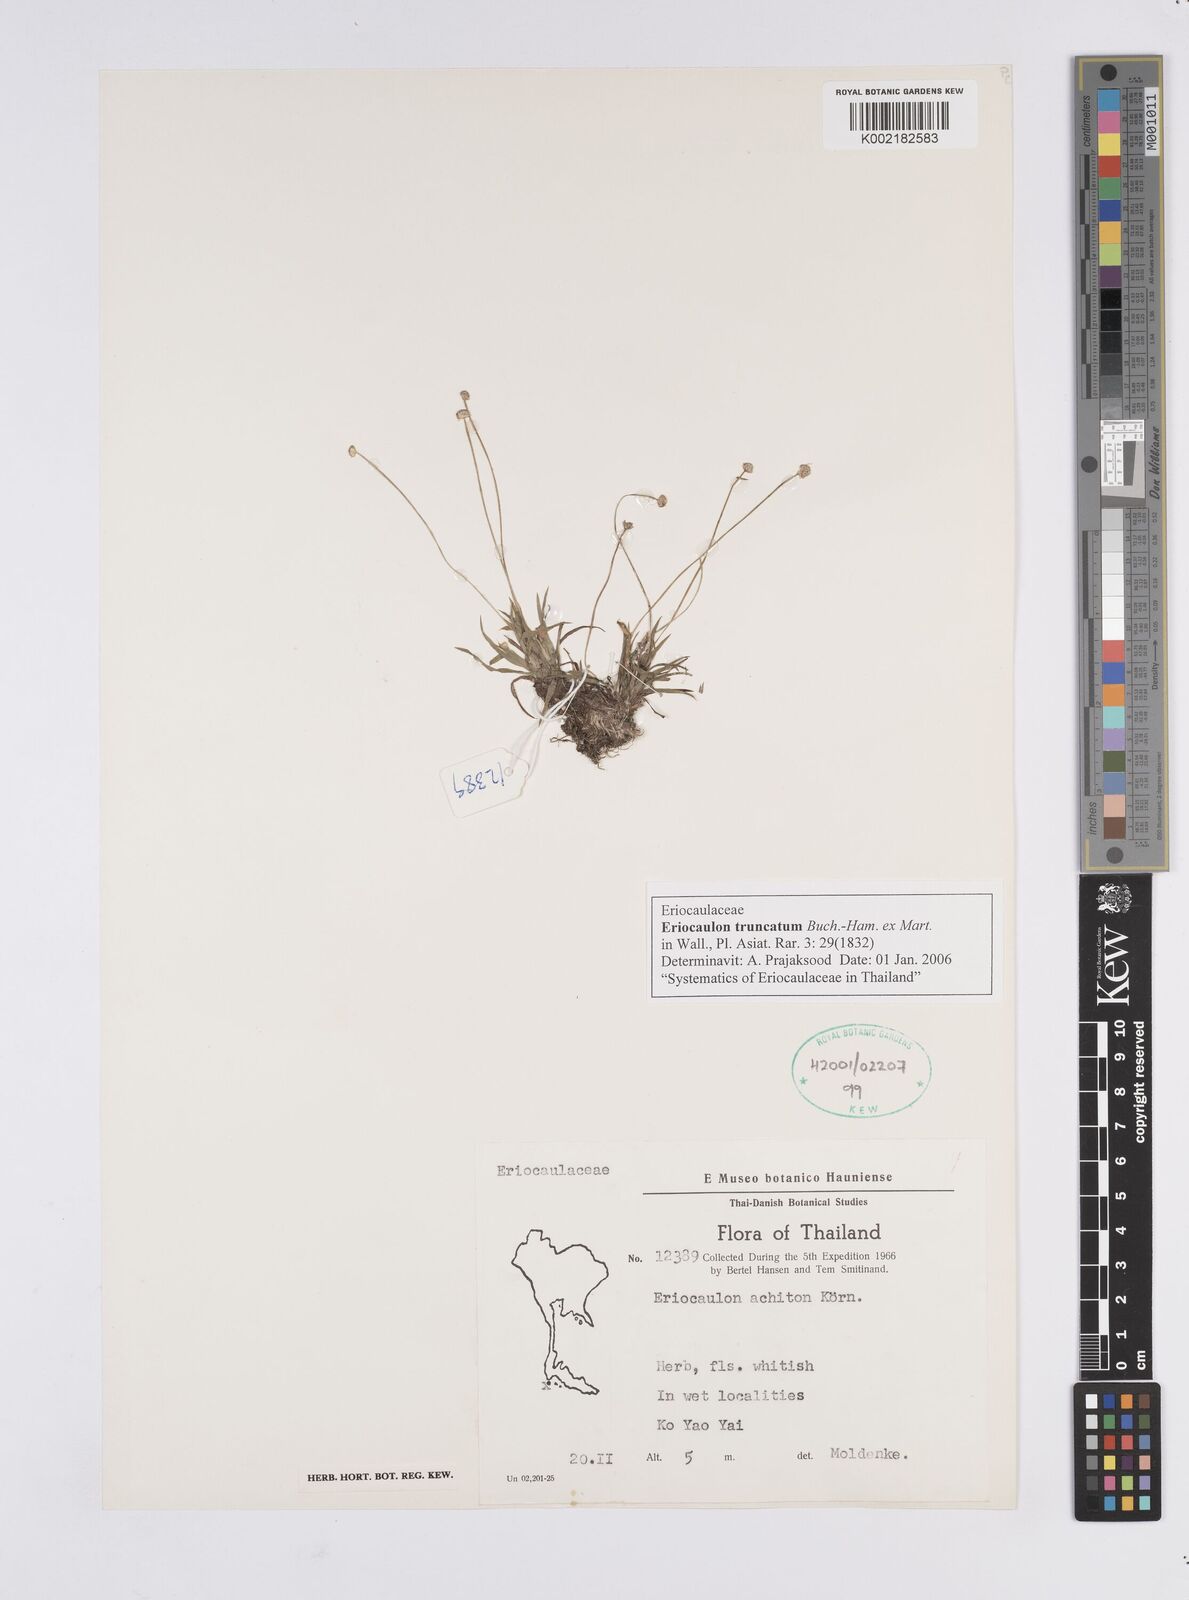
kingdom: Plantae
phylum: Tracheophyta
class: Liliopsida
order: Poales
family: Eriocaulaceae
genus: Eriocaulon
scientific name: Eriocaulon truncatum
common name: Short pipe-wort
